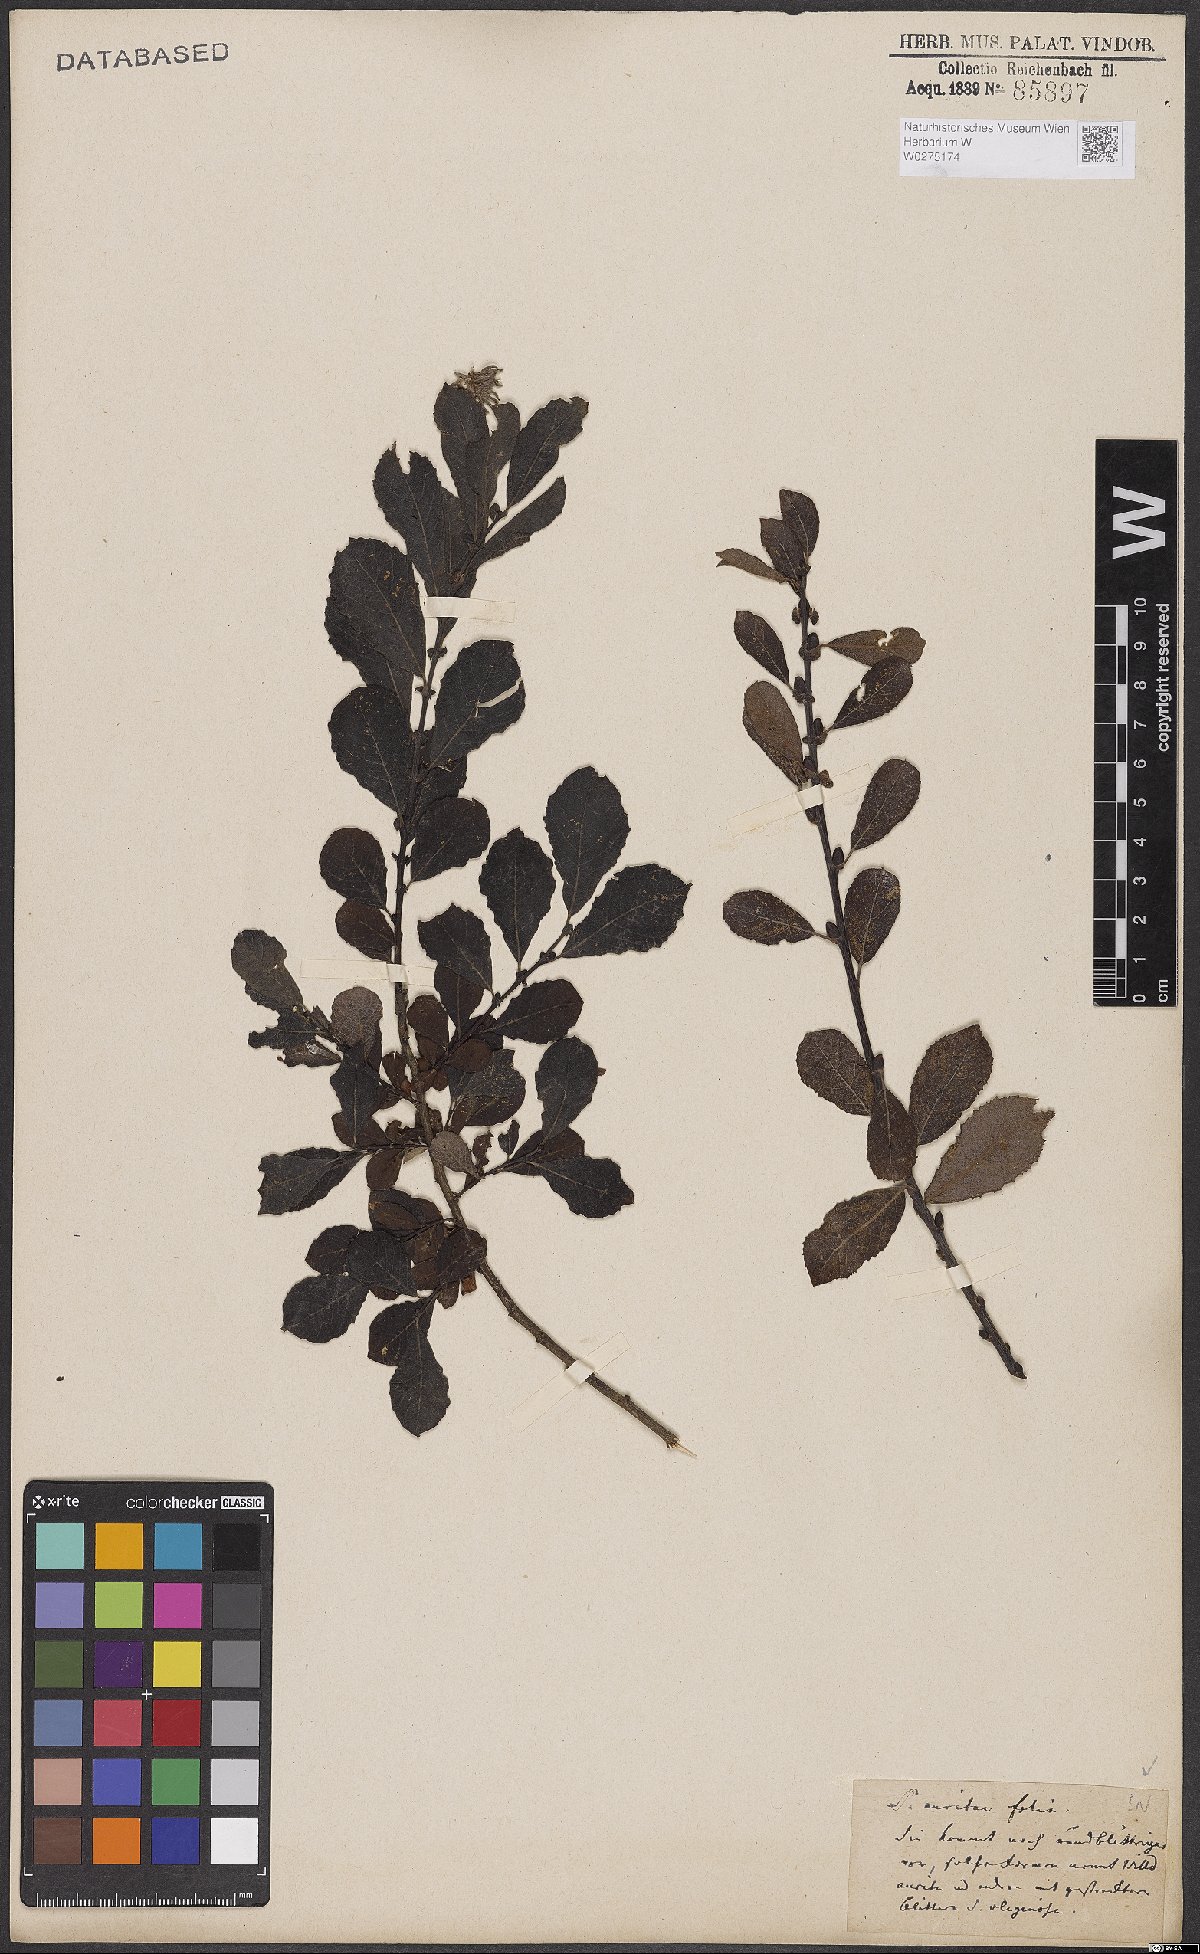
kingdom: Plantae
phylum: Tracheophyta
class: Magnoliopsida
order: Malpighiales
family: Salicaceae
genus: Salix
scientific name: Salix aurita
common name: Eared willow
